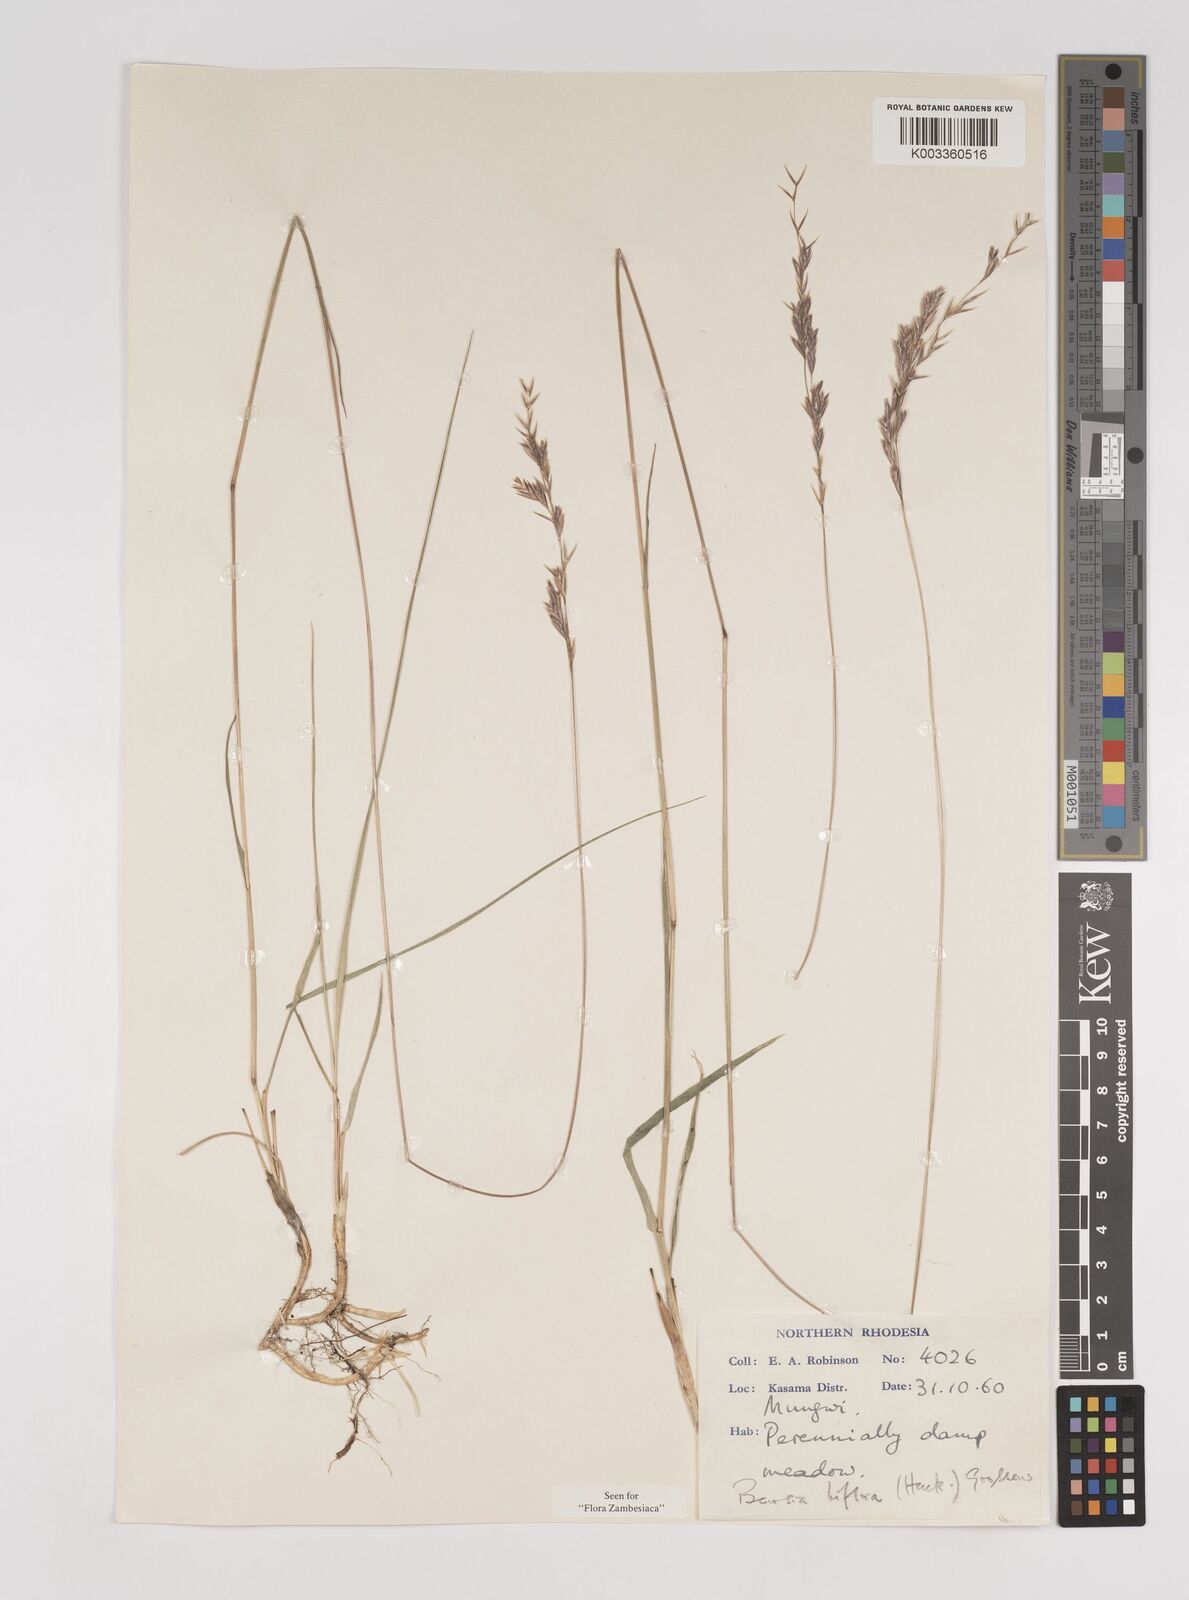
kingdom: Plantae
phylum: Tracheophyta
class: Liliopsida
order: Poales
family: Poaceae
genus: Bewsia
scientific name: Bewsia biflora
